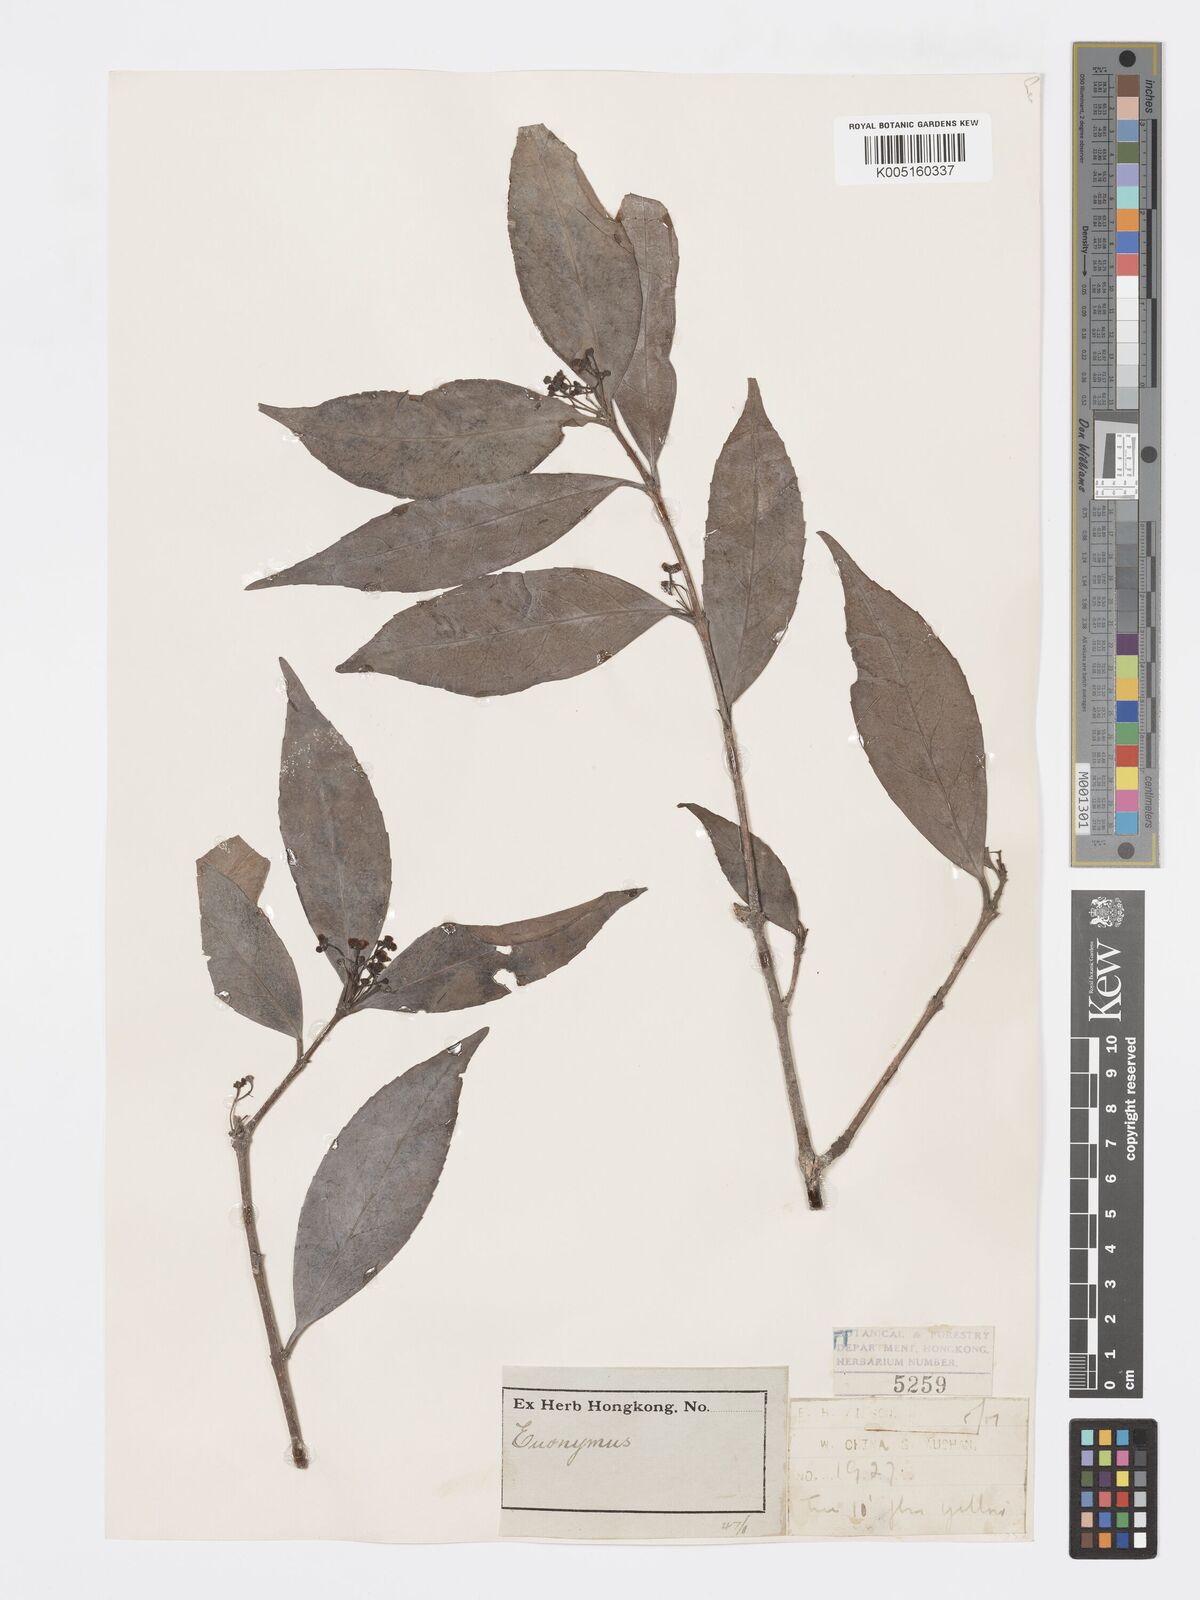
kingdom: Plantae
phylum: Tracheophyta
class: Magnoliopsida
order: Celastrales
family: Celastraceae
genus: Euonymus
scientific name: Euonymus
